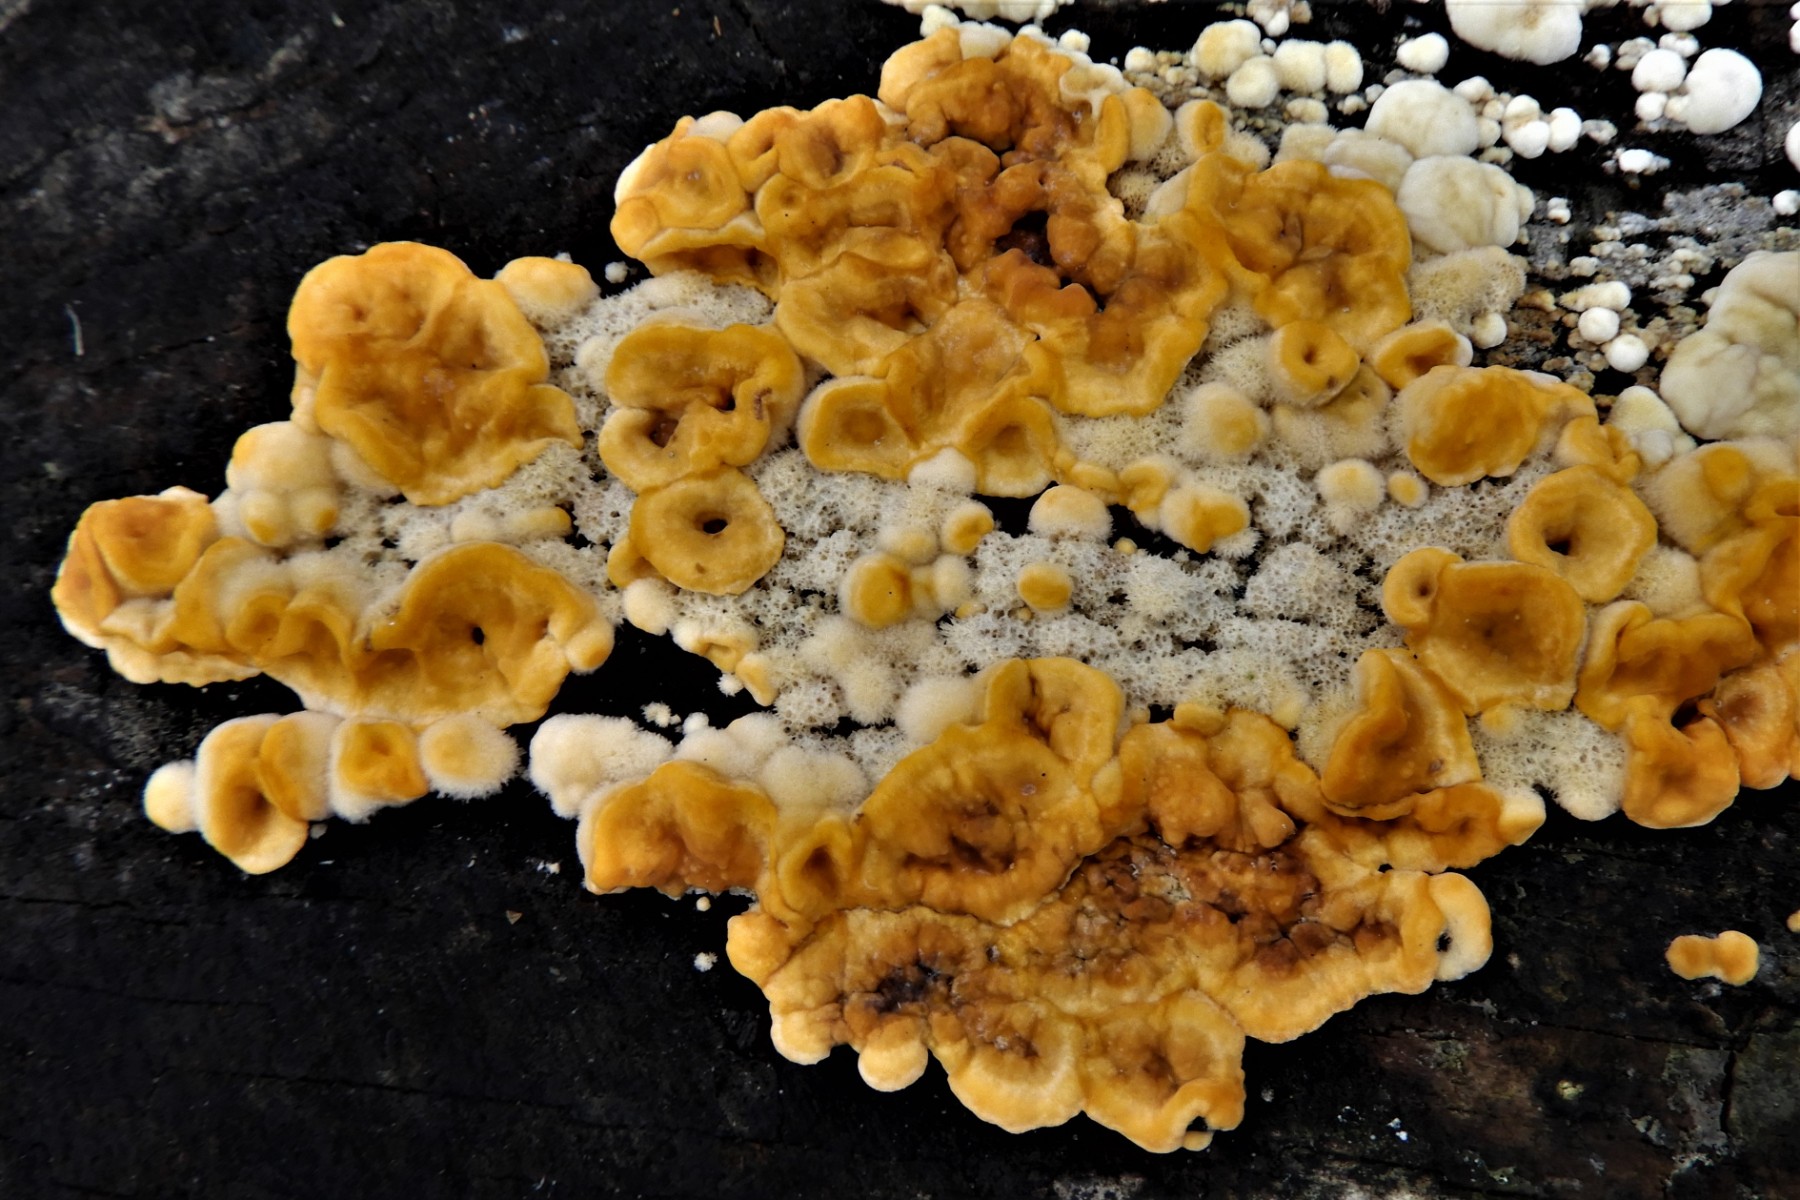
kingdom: Fungi
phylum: Basidiomycota
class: Agaricomycetes
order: Russulales
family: Stereaceae
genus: Stereum
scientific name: Stereum hirsutum
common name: håret lædersvamp
